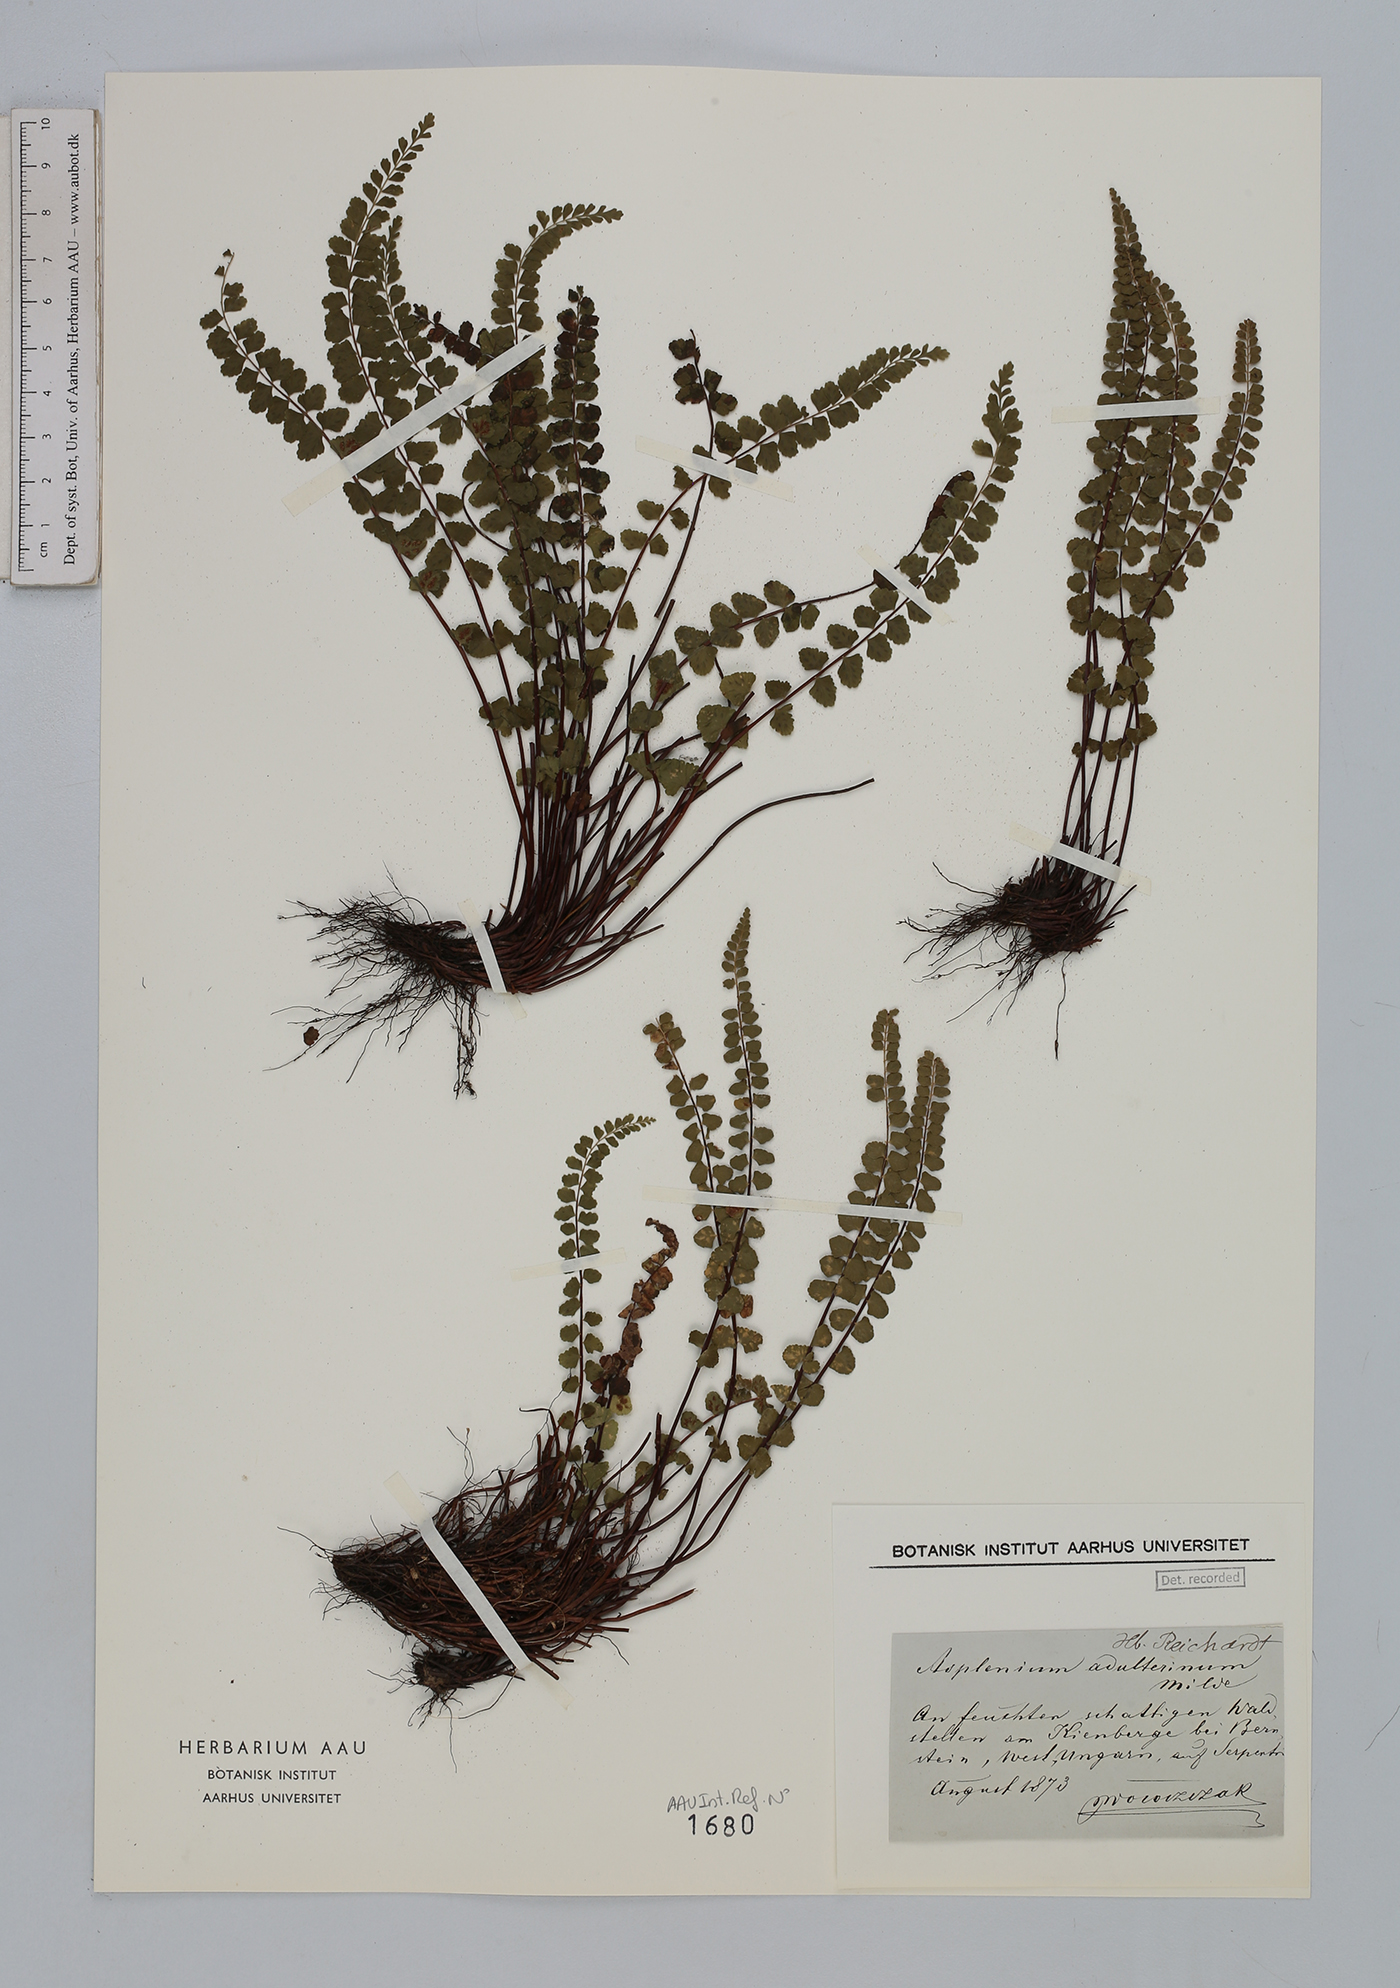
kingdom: Plantae
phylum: Tracheophyta
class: Polypodiopsida
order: Polypodiales
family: Aspleniaceae
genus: Asplenium
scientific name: Asplenium adulterinum
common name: Adulterated spleenwort
